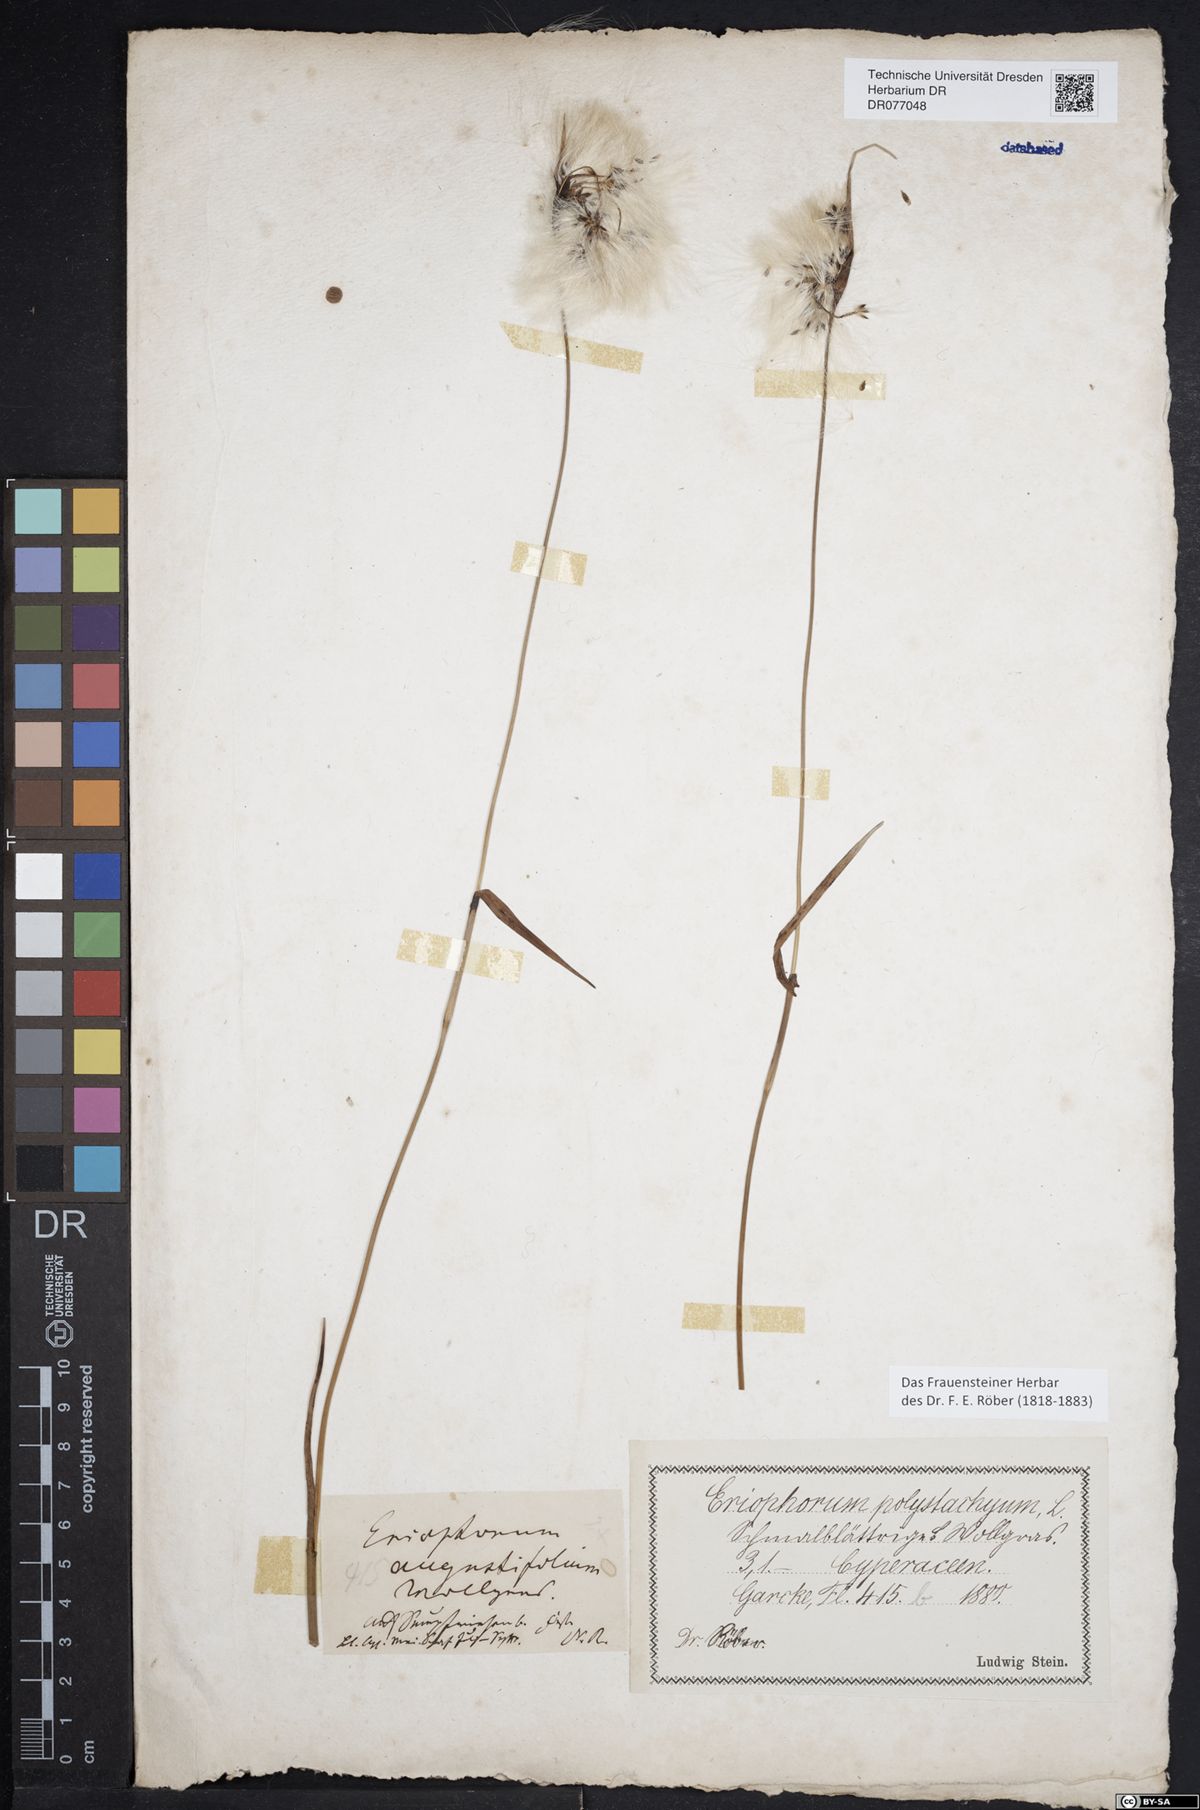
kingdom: Plantae
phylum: Tracheophyta
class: Liliopsida
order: Poales
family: Cyperaceae
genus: Eriophorum
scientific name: Eriophorum polystachion
